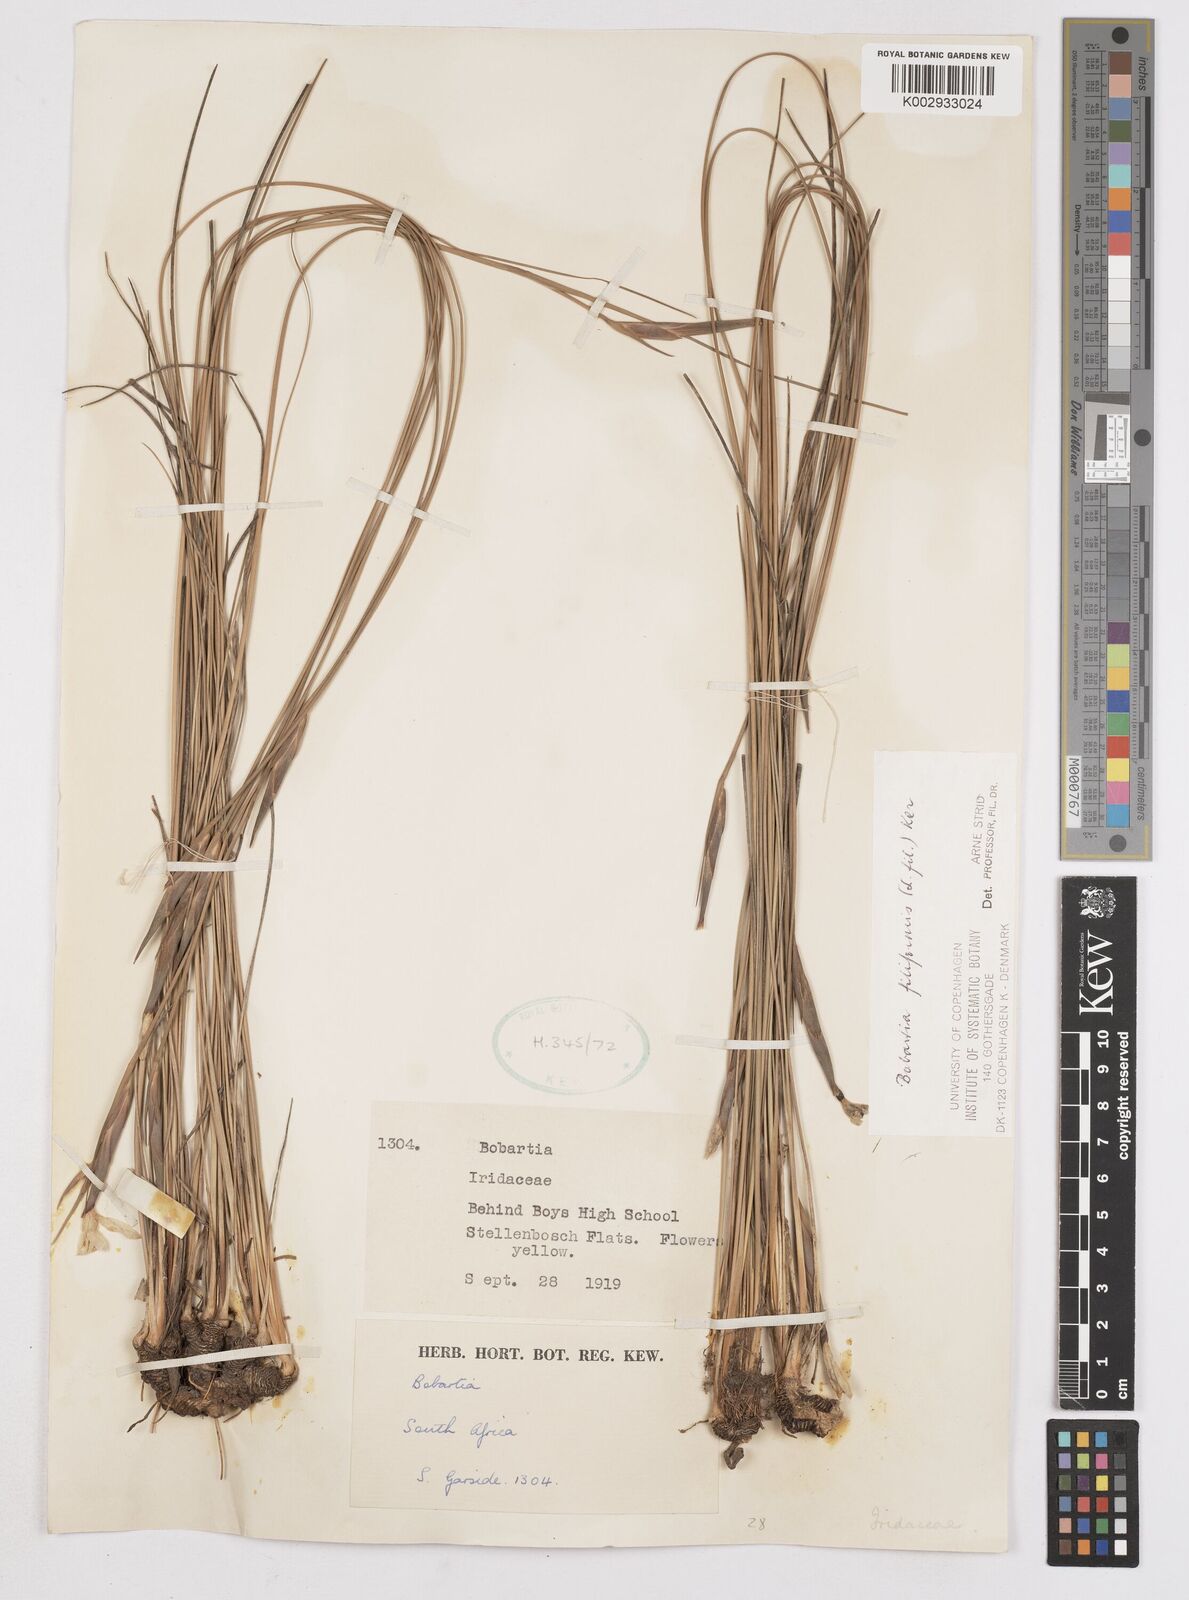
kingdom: Plantae
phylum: Tracheophyta
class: Liliopsida
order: Asparagales
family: Iridaceae
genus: Bobartia
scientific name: Bobartia filiformis
